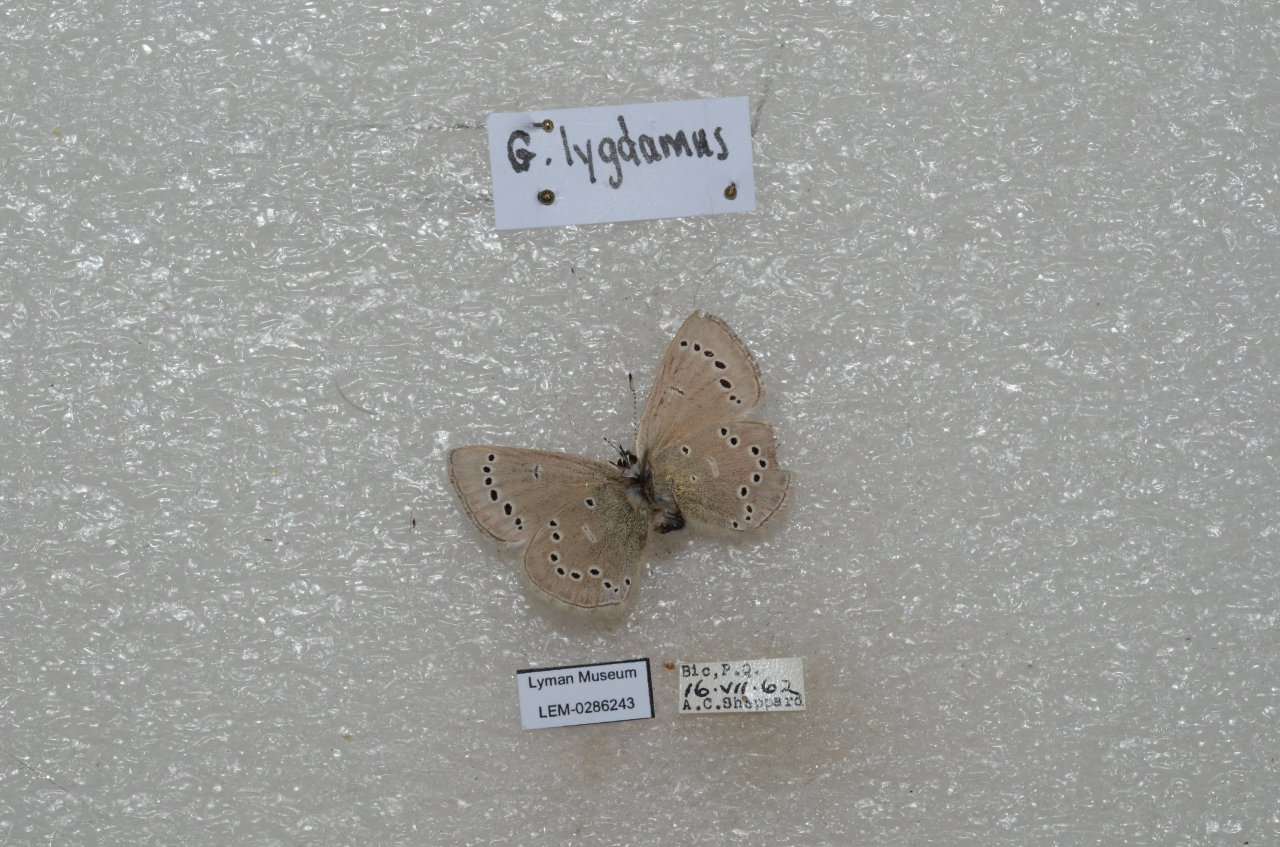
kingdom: Animalia
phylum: Arthropoda
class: Insecta
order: Lepidoptera
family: Lycaenidae
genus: Glaucopsyche
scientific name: Glaucopsyche lygdamus
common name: Silvery Blue
